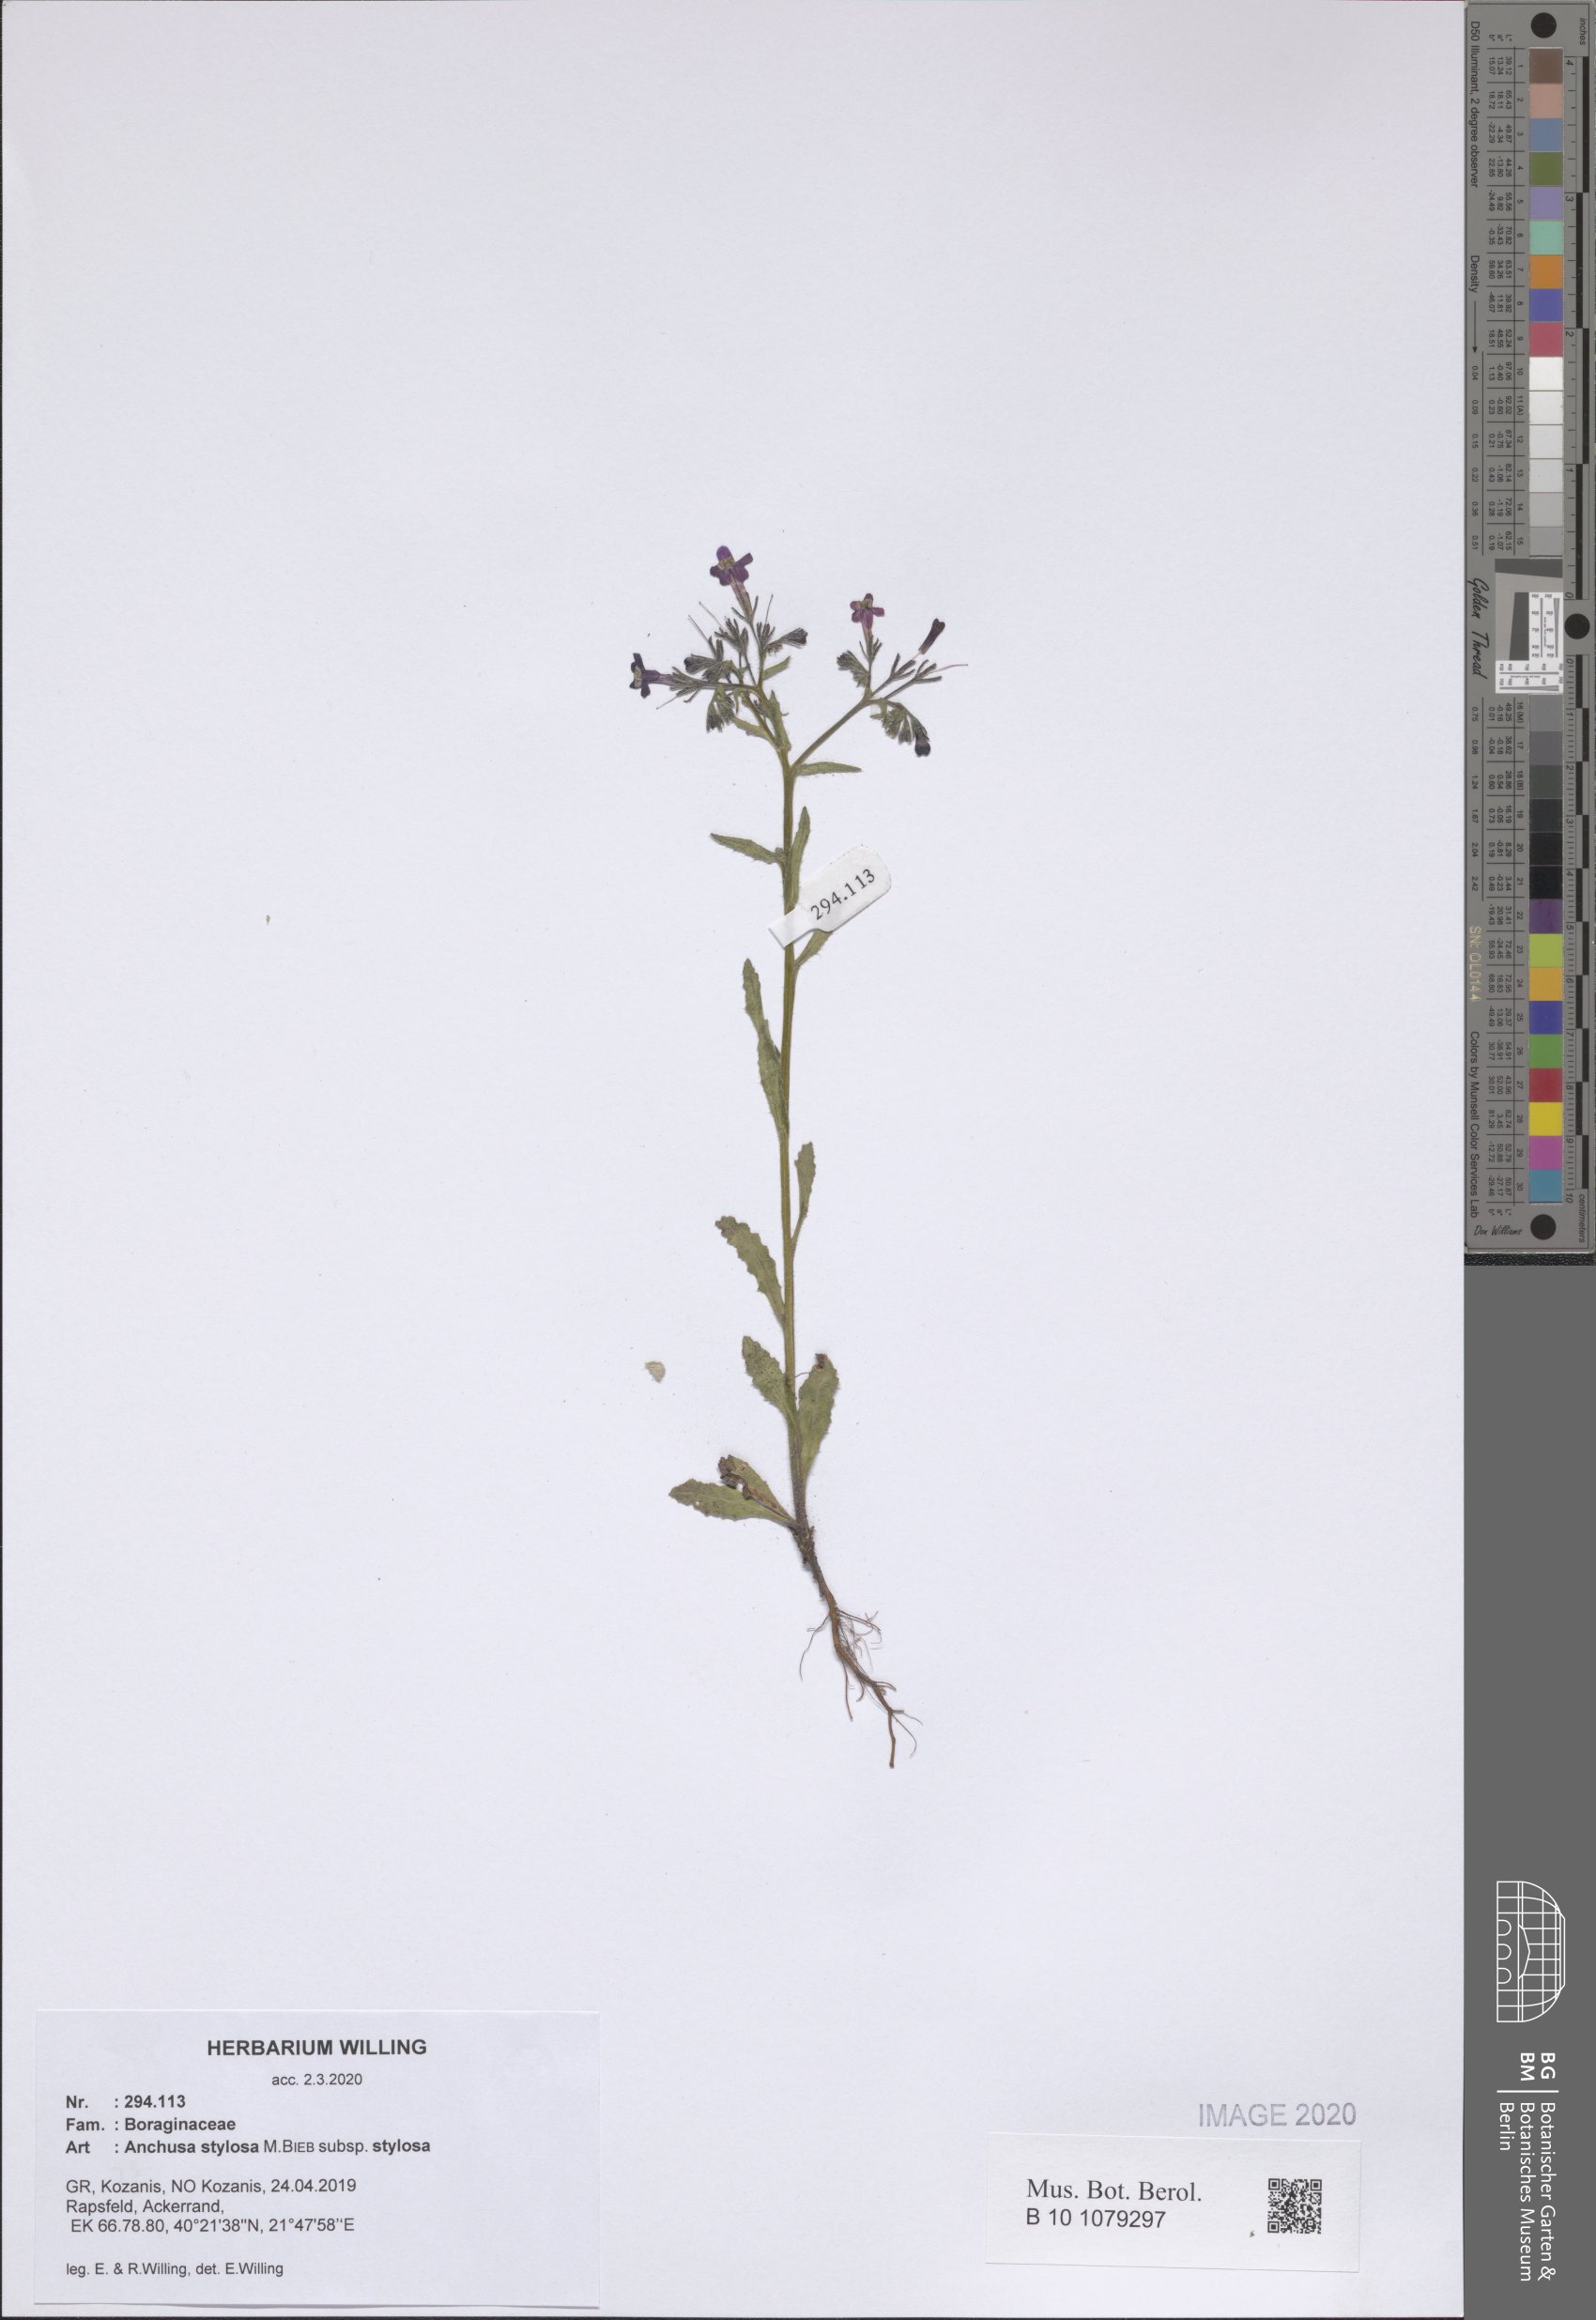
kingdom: Plantae
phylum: Tracheophyta
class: Magnoliopsida
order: Boraginales
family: Boraginaceae
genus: Anchusa
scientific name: Anchusa stylosa
